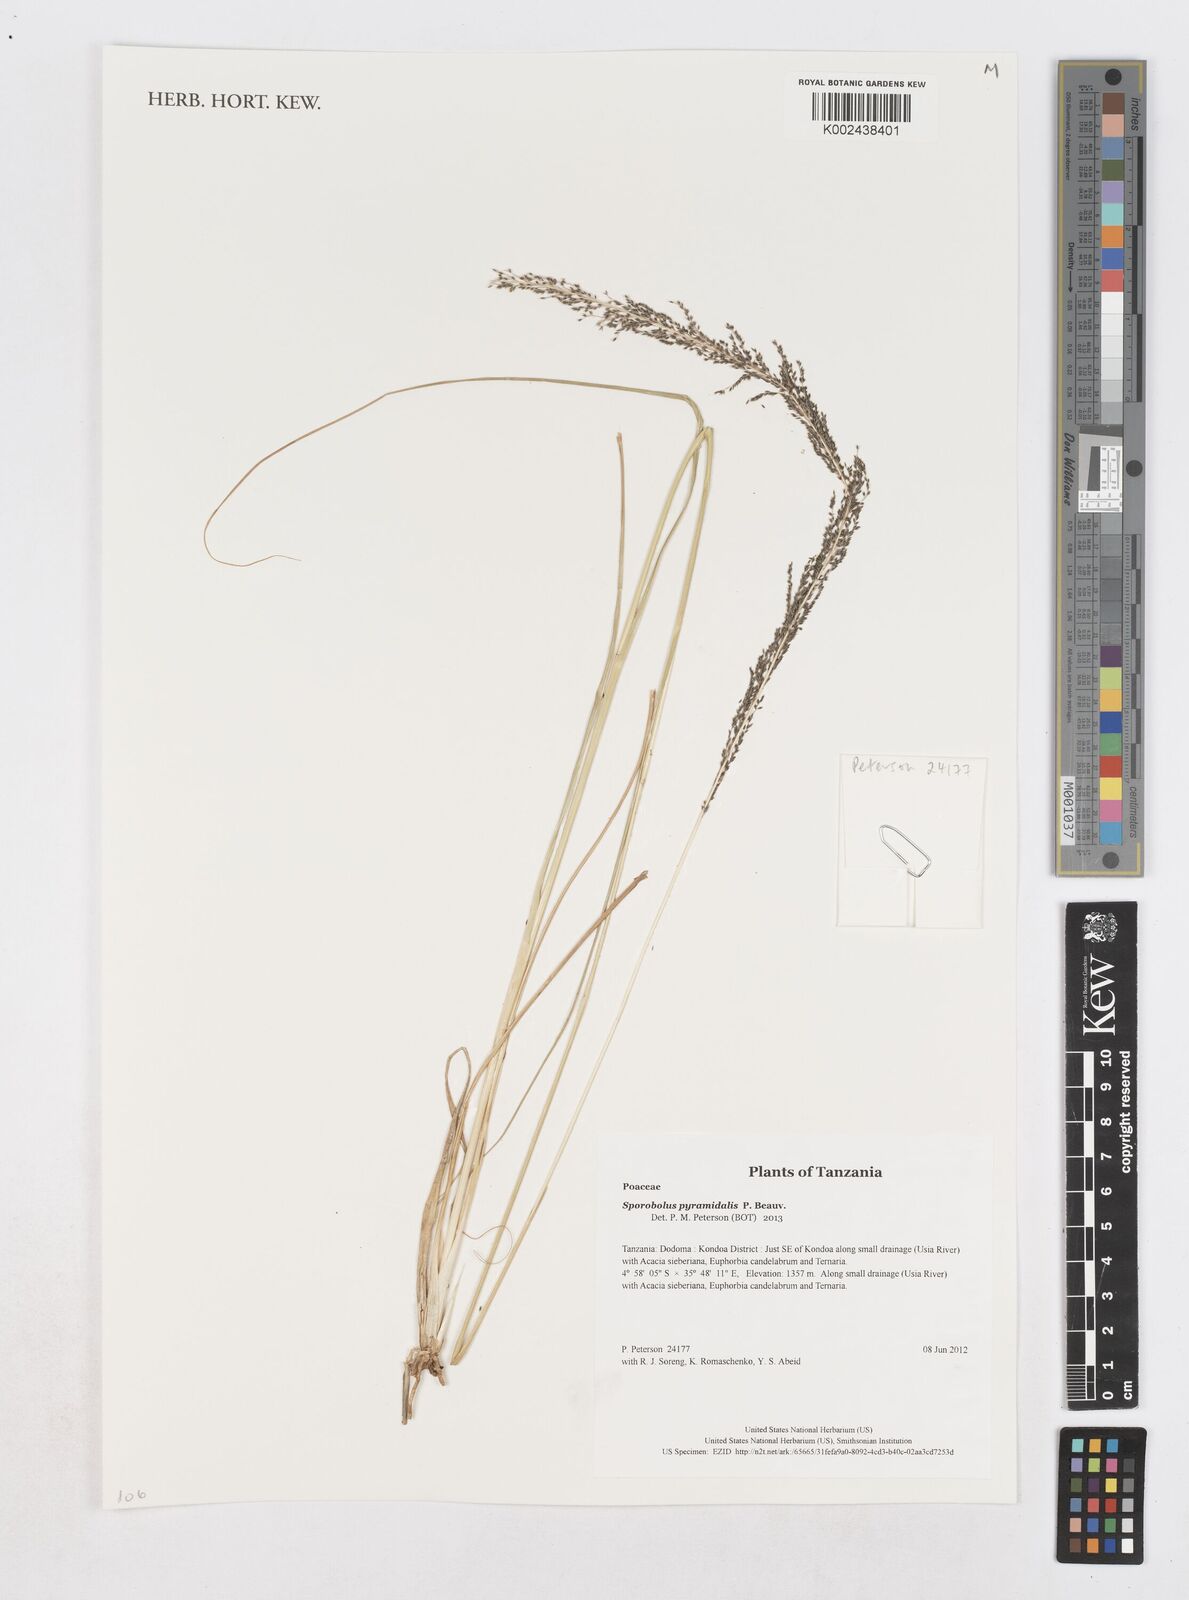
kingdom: Plantae
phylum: Tracheophyta
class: Liliopsida
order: Poales
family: Poaceae
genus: Sporobolus
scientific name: Sporobolus pyramidalis
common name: West indian dropseed
